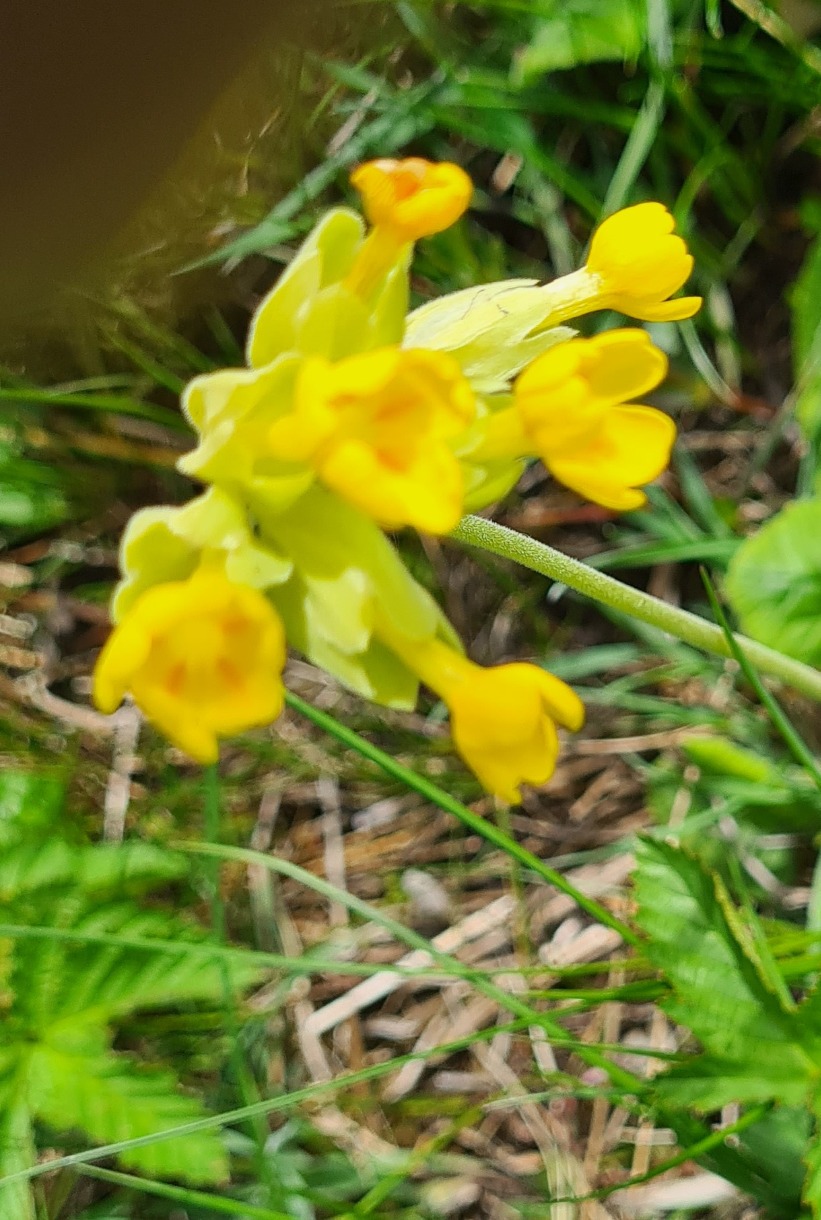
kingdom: Plantae
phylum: Tracheophyta
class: Magnoliopsida
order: Ericales
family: Primulaceae
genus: Primula
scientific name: Primula veris
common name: Hulkravet kodriver
